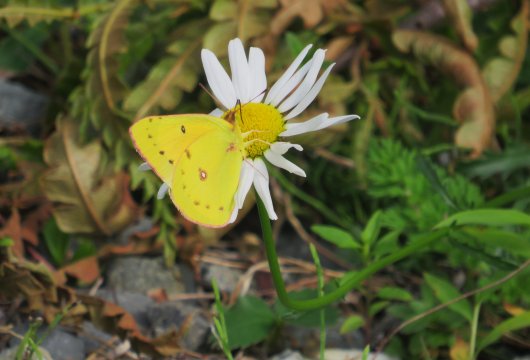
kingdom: Animalia
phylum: Arthropoda
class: Insecta
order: Lepidoptera
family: Pieridae
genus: Colias
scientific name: Colias eurytheme
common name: Orange Sulphur
